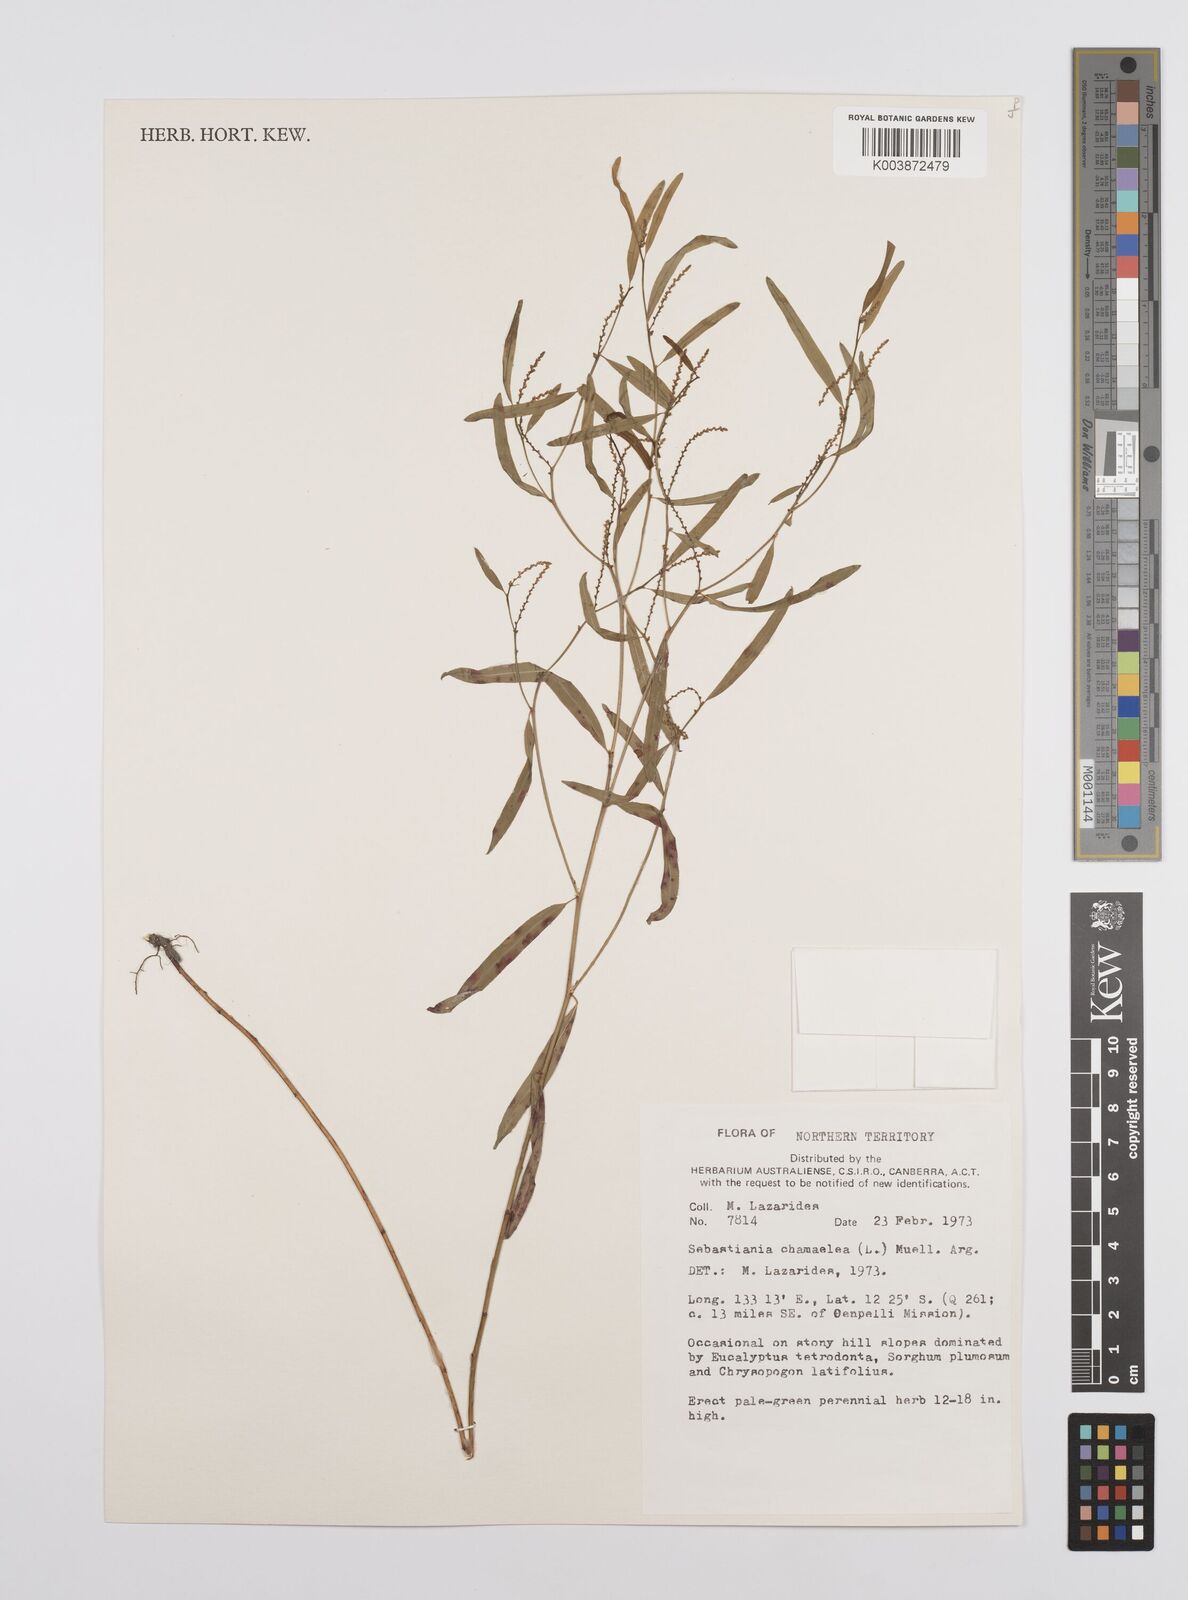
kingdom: Plantae
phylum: Tracheophyta
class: Magnoliopsida
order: Malpighiales
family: Euphorbiaceae
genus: Microstachys
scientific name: Microstachys chamaelea
